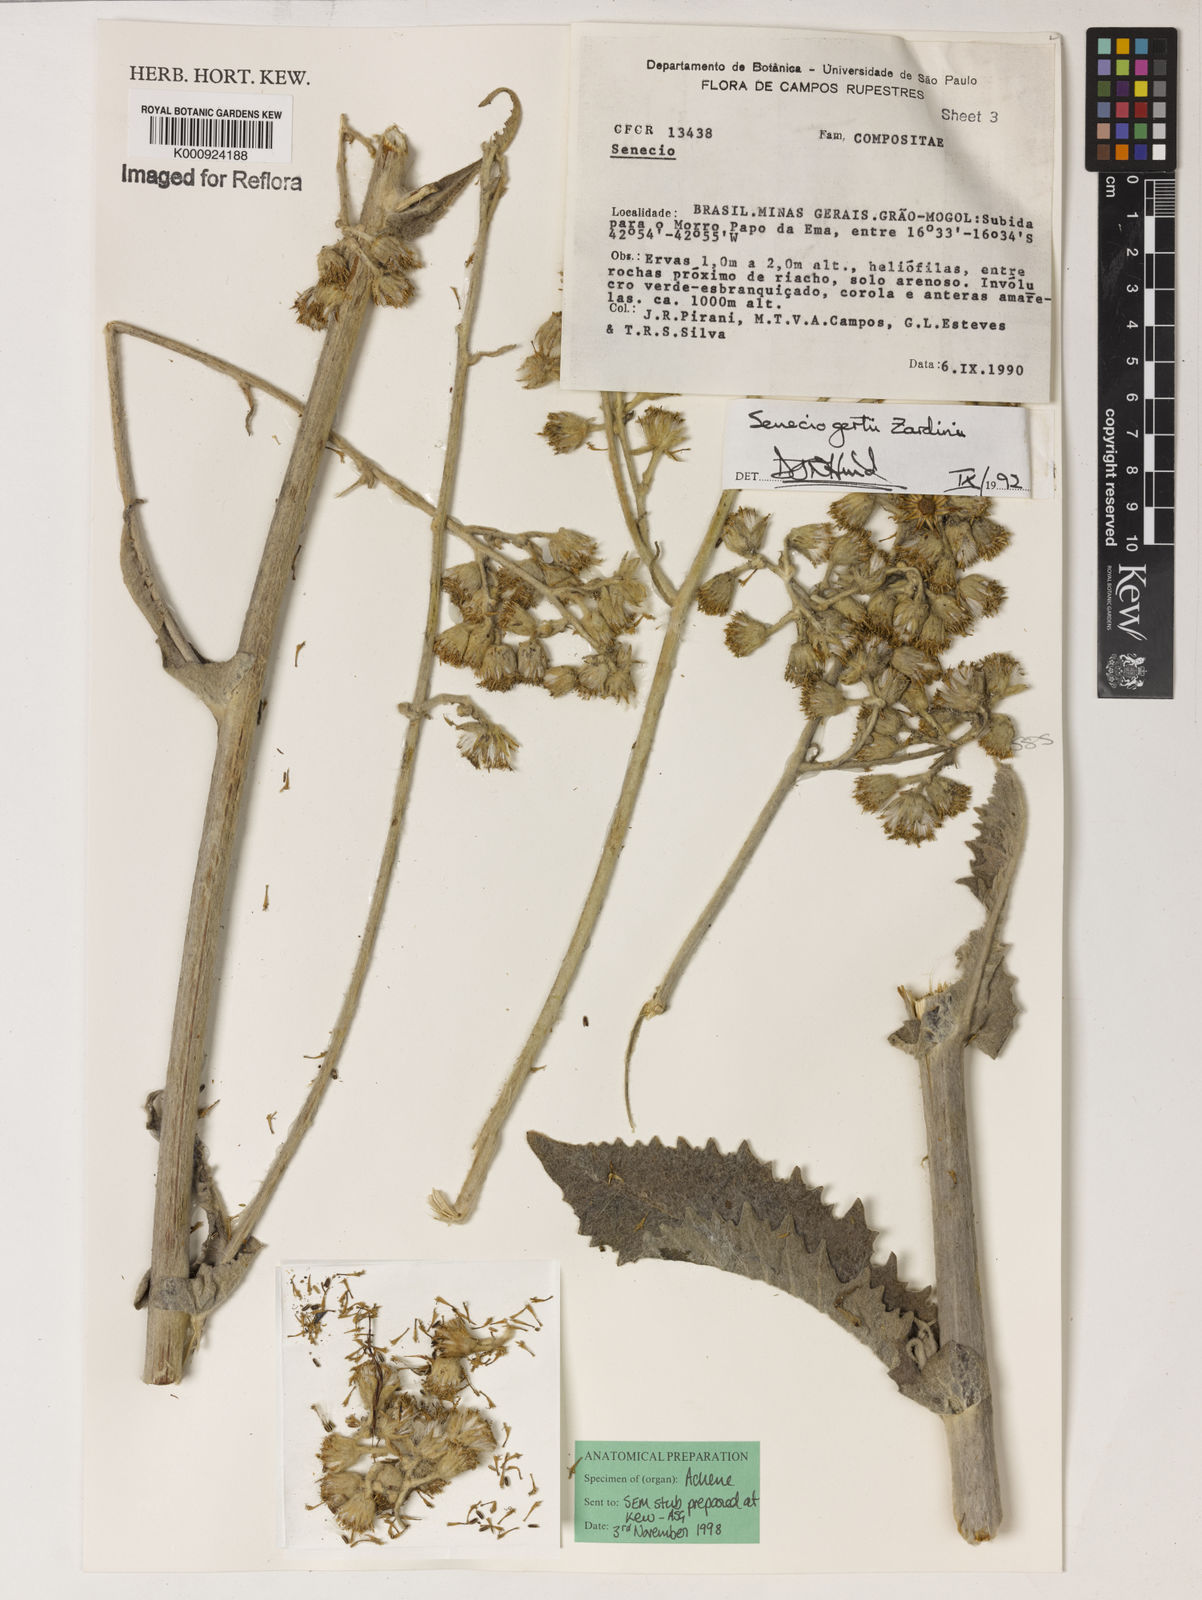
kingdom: Plantae
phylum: Tracheophyta
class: Magnoliopsida
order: Asterales
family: Asteraceae
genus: Senecio
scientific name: Senecio gertii
